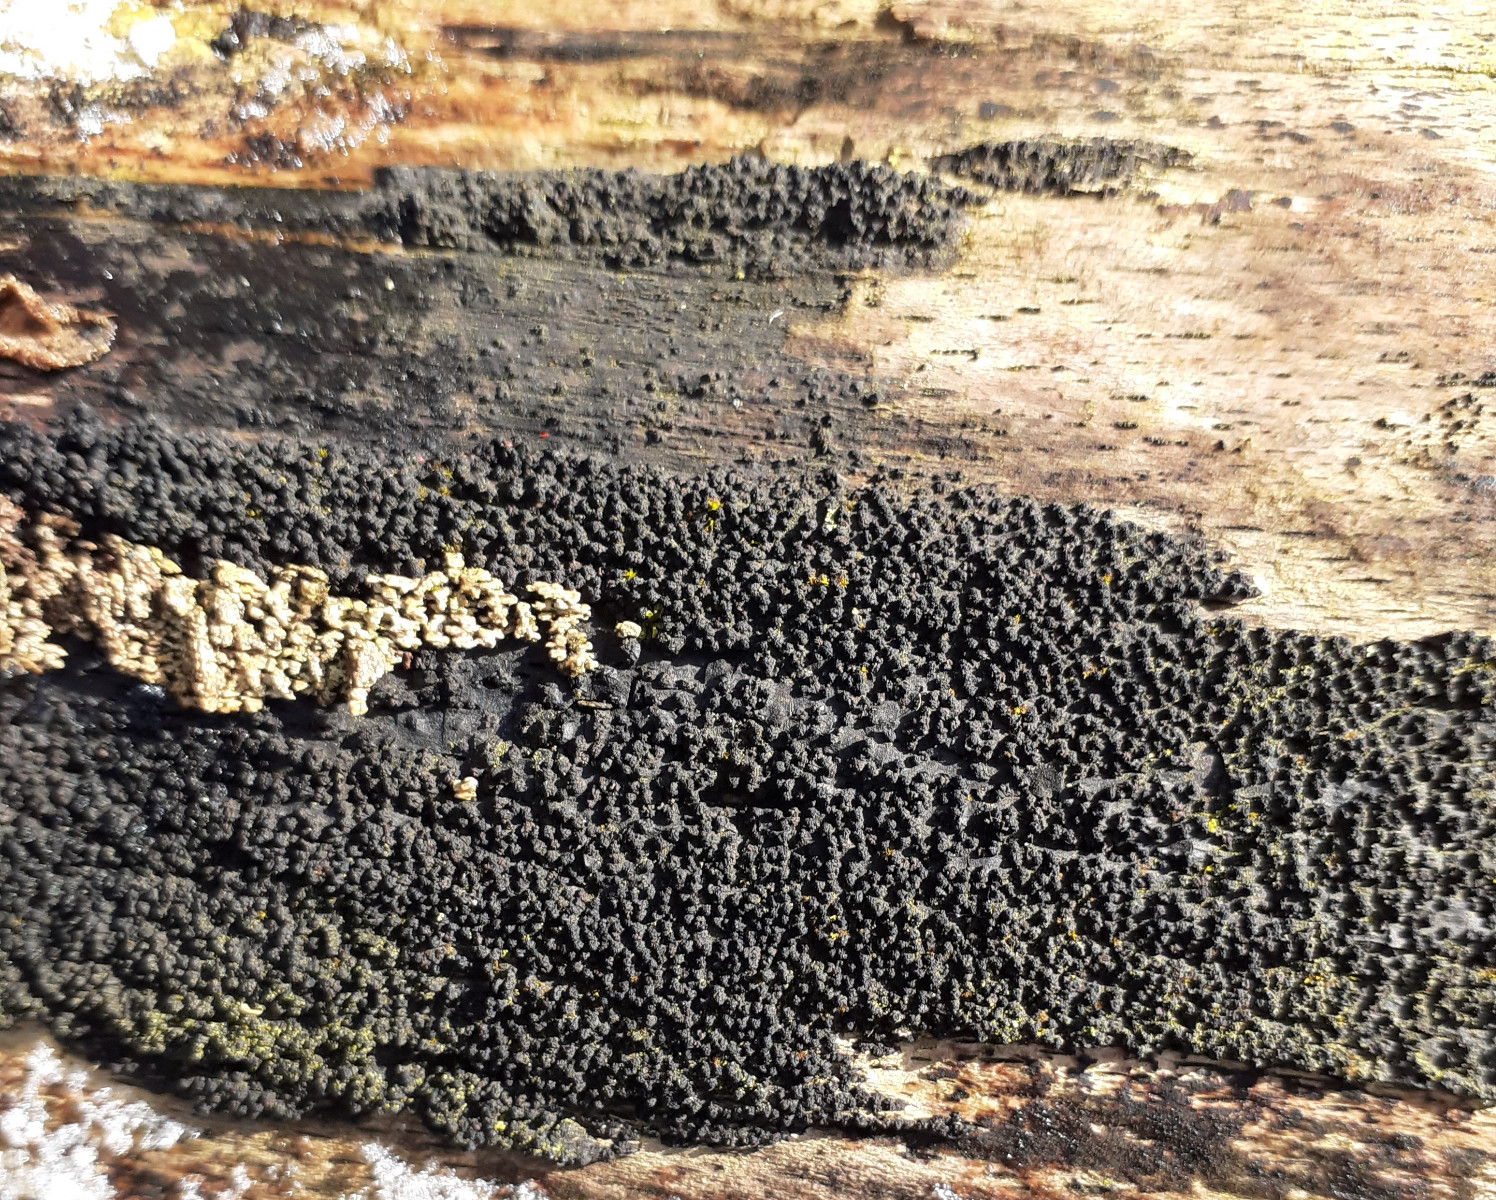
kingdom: Fungi
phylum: Ascomycota
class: Sordariomycetes
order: Xylariales
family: Diatrypaceae
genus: Eutypa
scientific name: Eutypa spinosa
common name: grov kulskorpe
